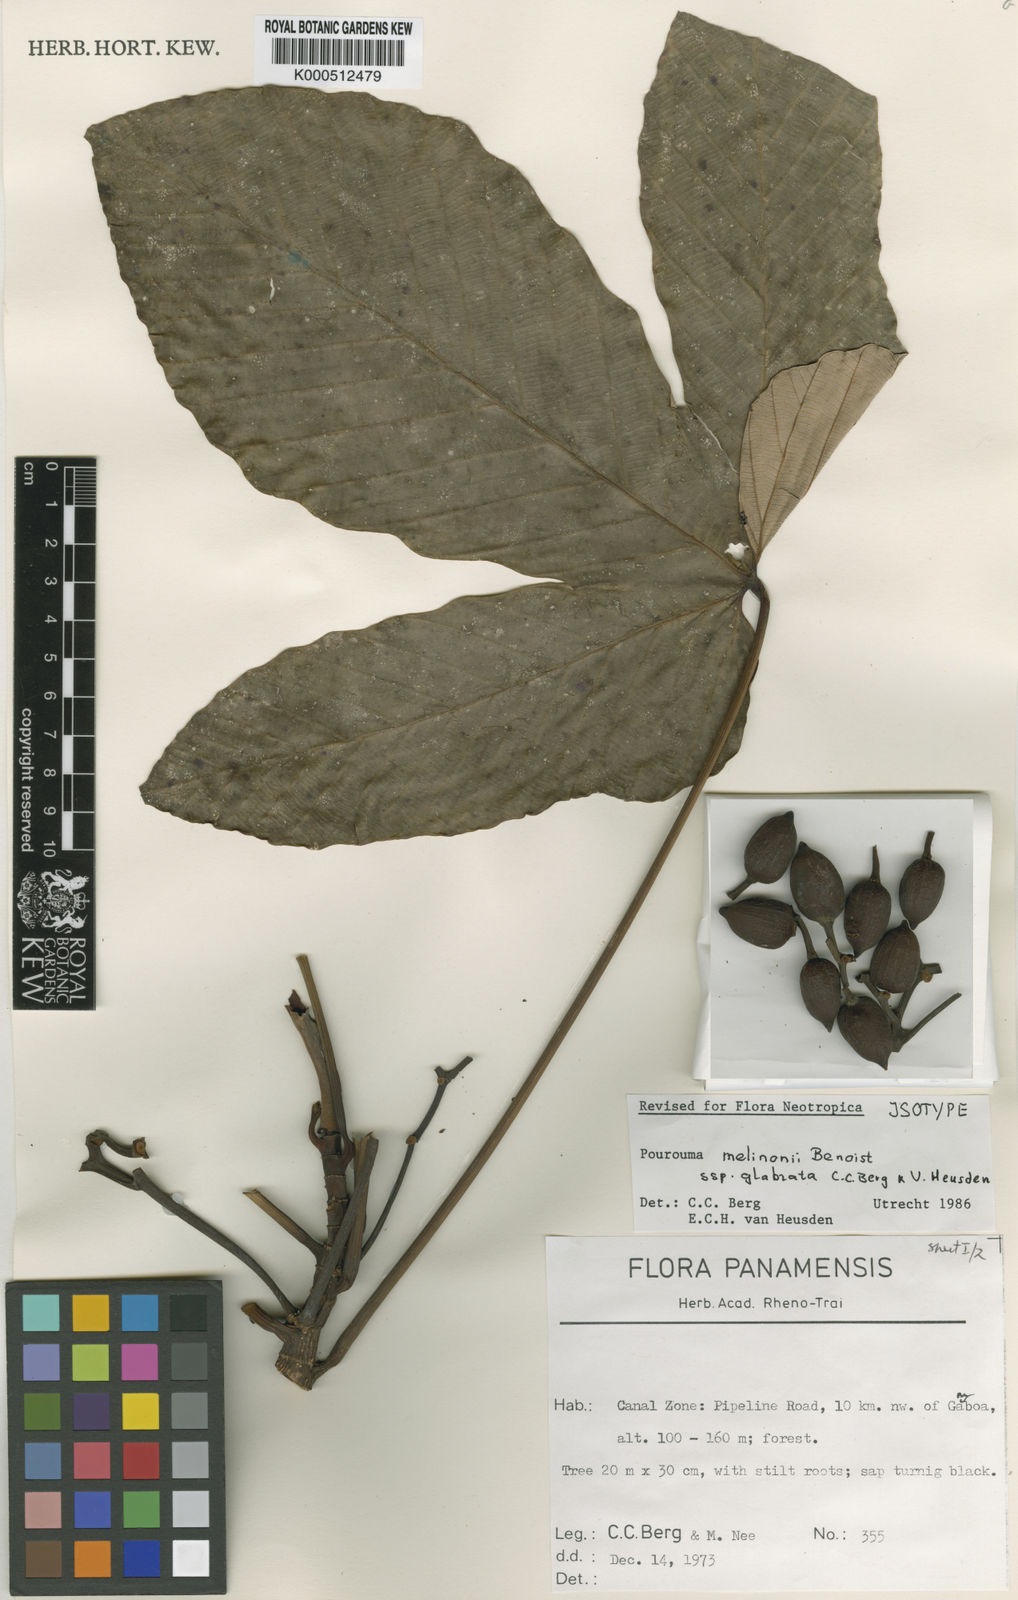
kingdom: Plantae
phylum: Tracheophyta
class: Magnoliopsida
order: Rosales
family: Urticaceae
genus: Pourouma
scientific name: Pourouma melinonii
